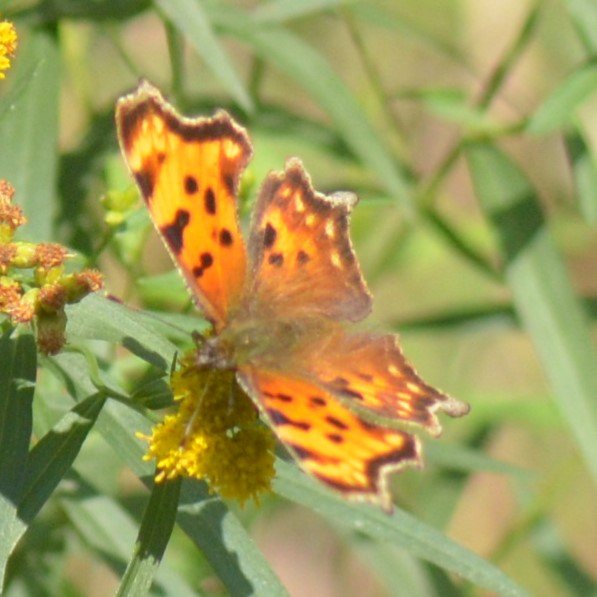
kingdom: Animalia
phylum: Arthropoda
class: Insecta
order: Lepidoptera
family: Nymphalidae
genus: Polygonia
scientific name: Polygonia faunus
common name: Green Comma
